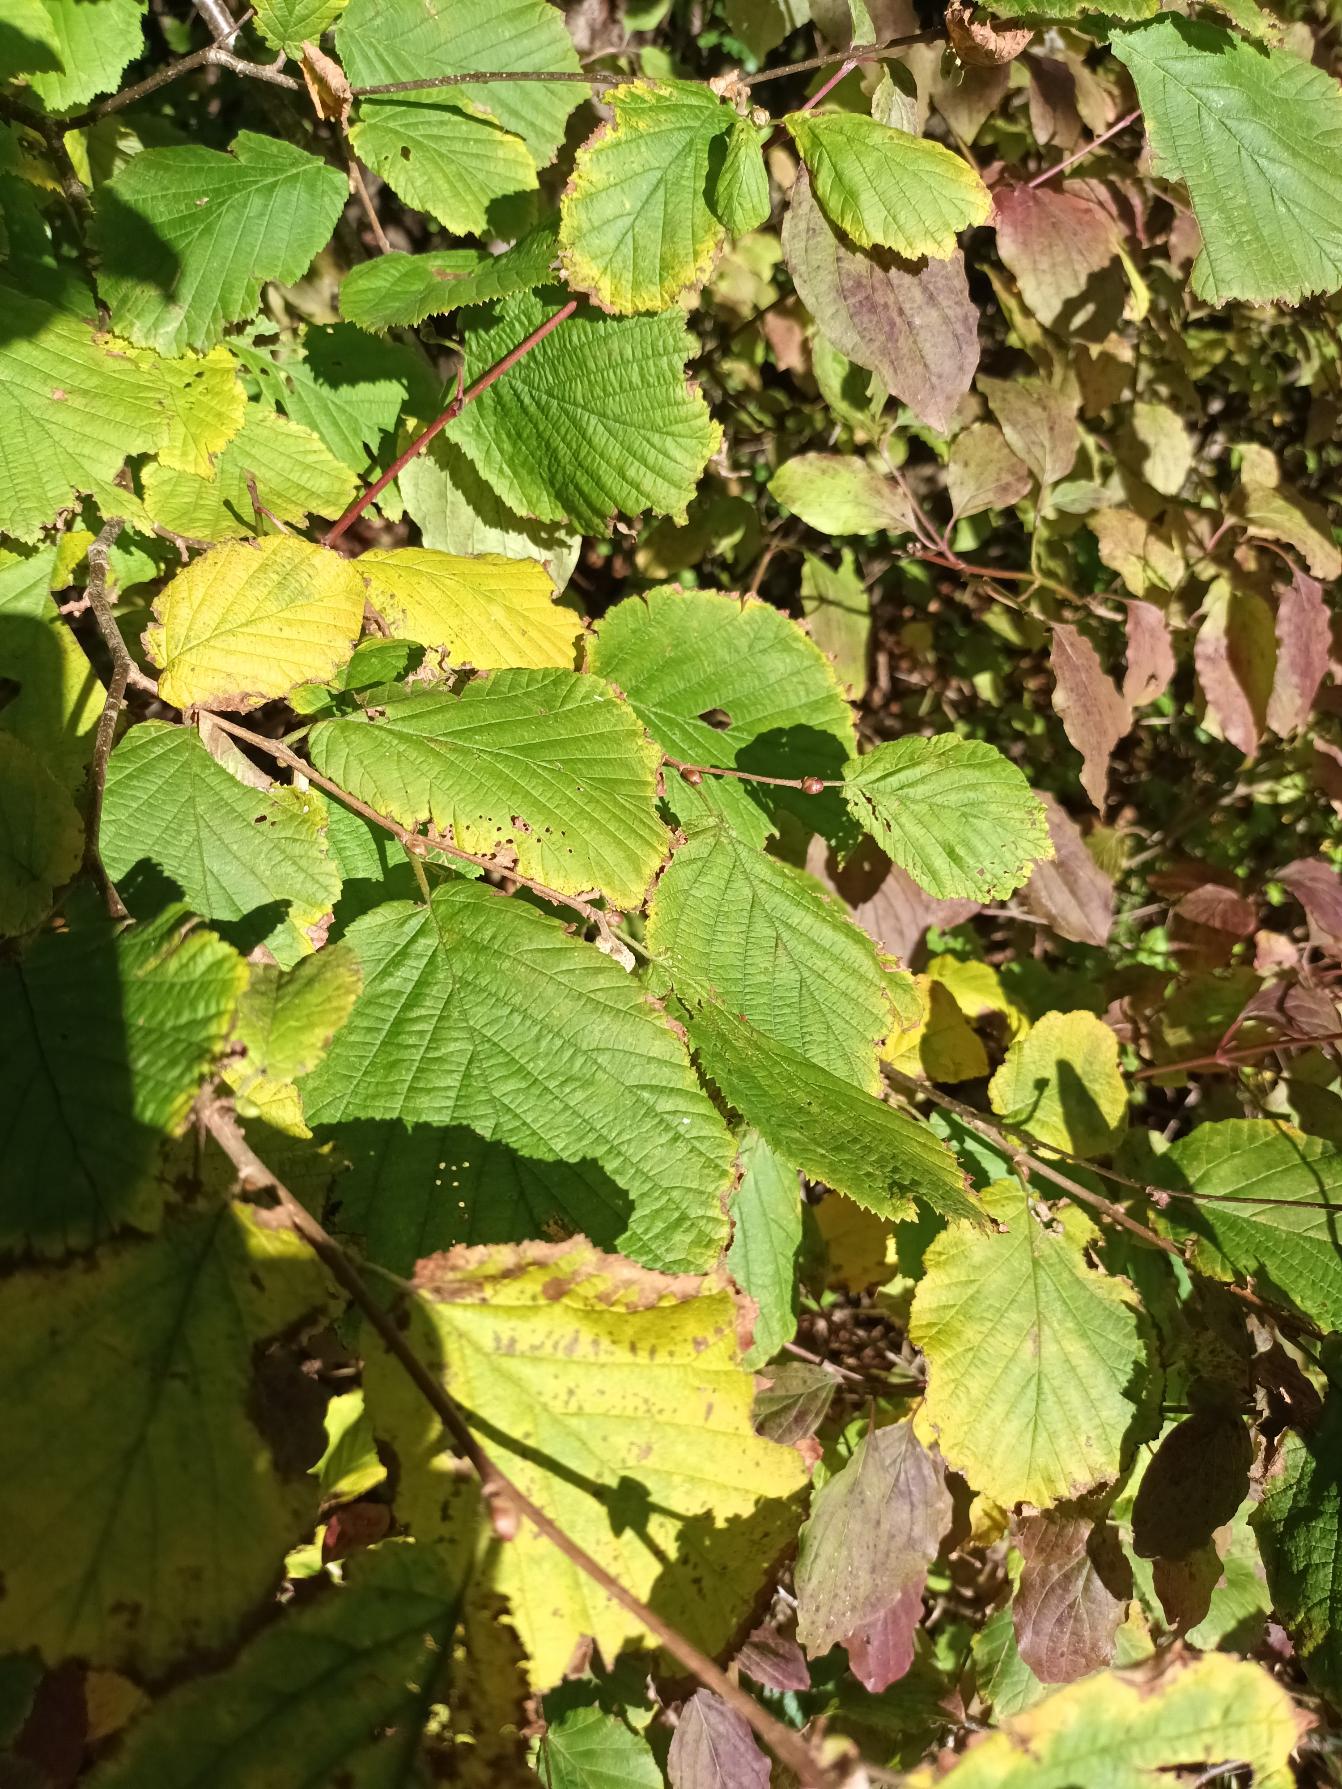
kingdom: Plantae
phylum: Tracheophyta
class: Magnoliopsida
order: Fagales
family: Betulaceae
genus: Corylus
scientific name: Corylus avellana
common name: Hassel
